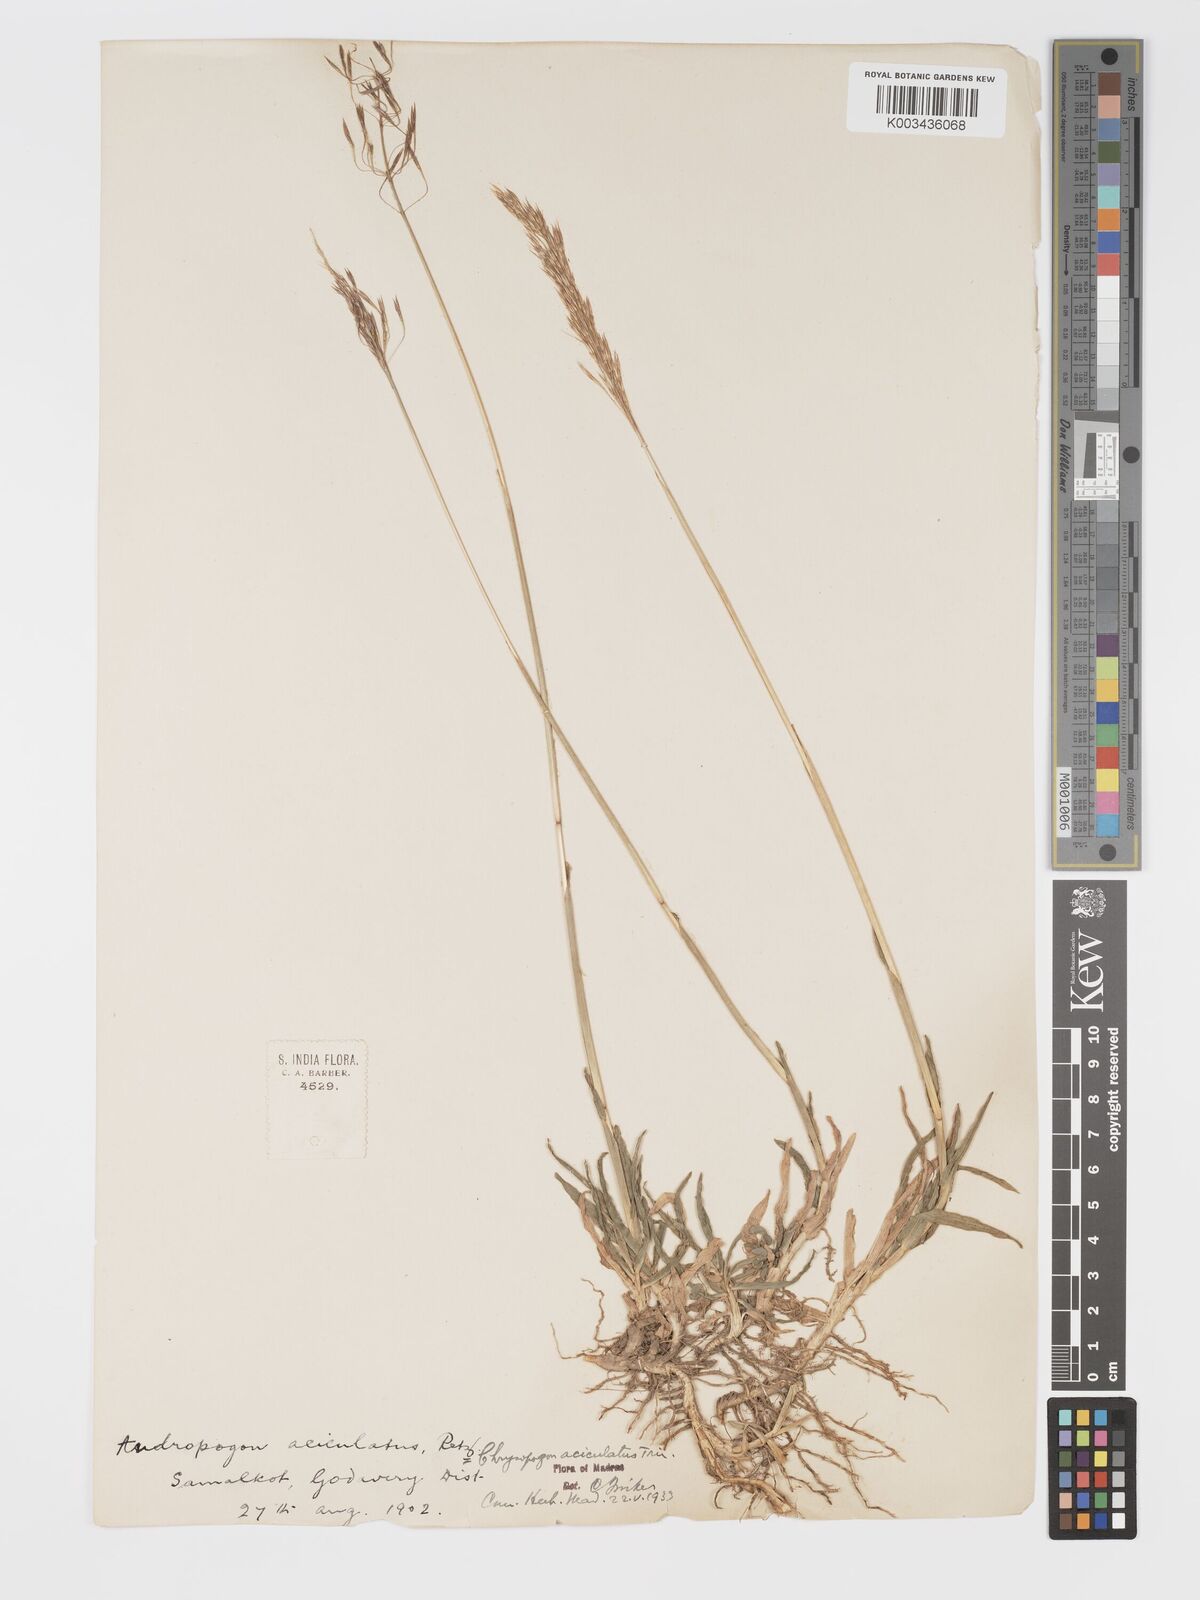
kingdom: Plantae
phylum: Tracheophyta
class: Liliopsida
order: Poales
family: Poaceae
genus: Chrysopogon
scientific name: Chrysopogon aciculatus
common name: Pilipiliula
